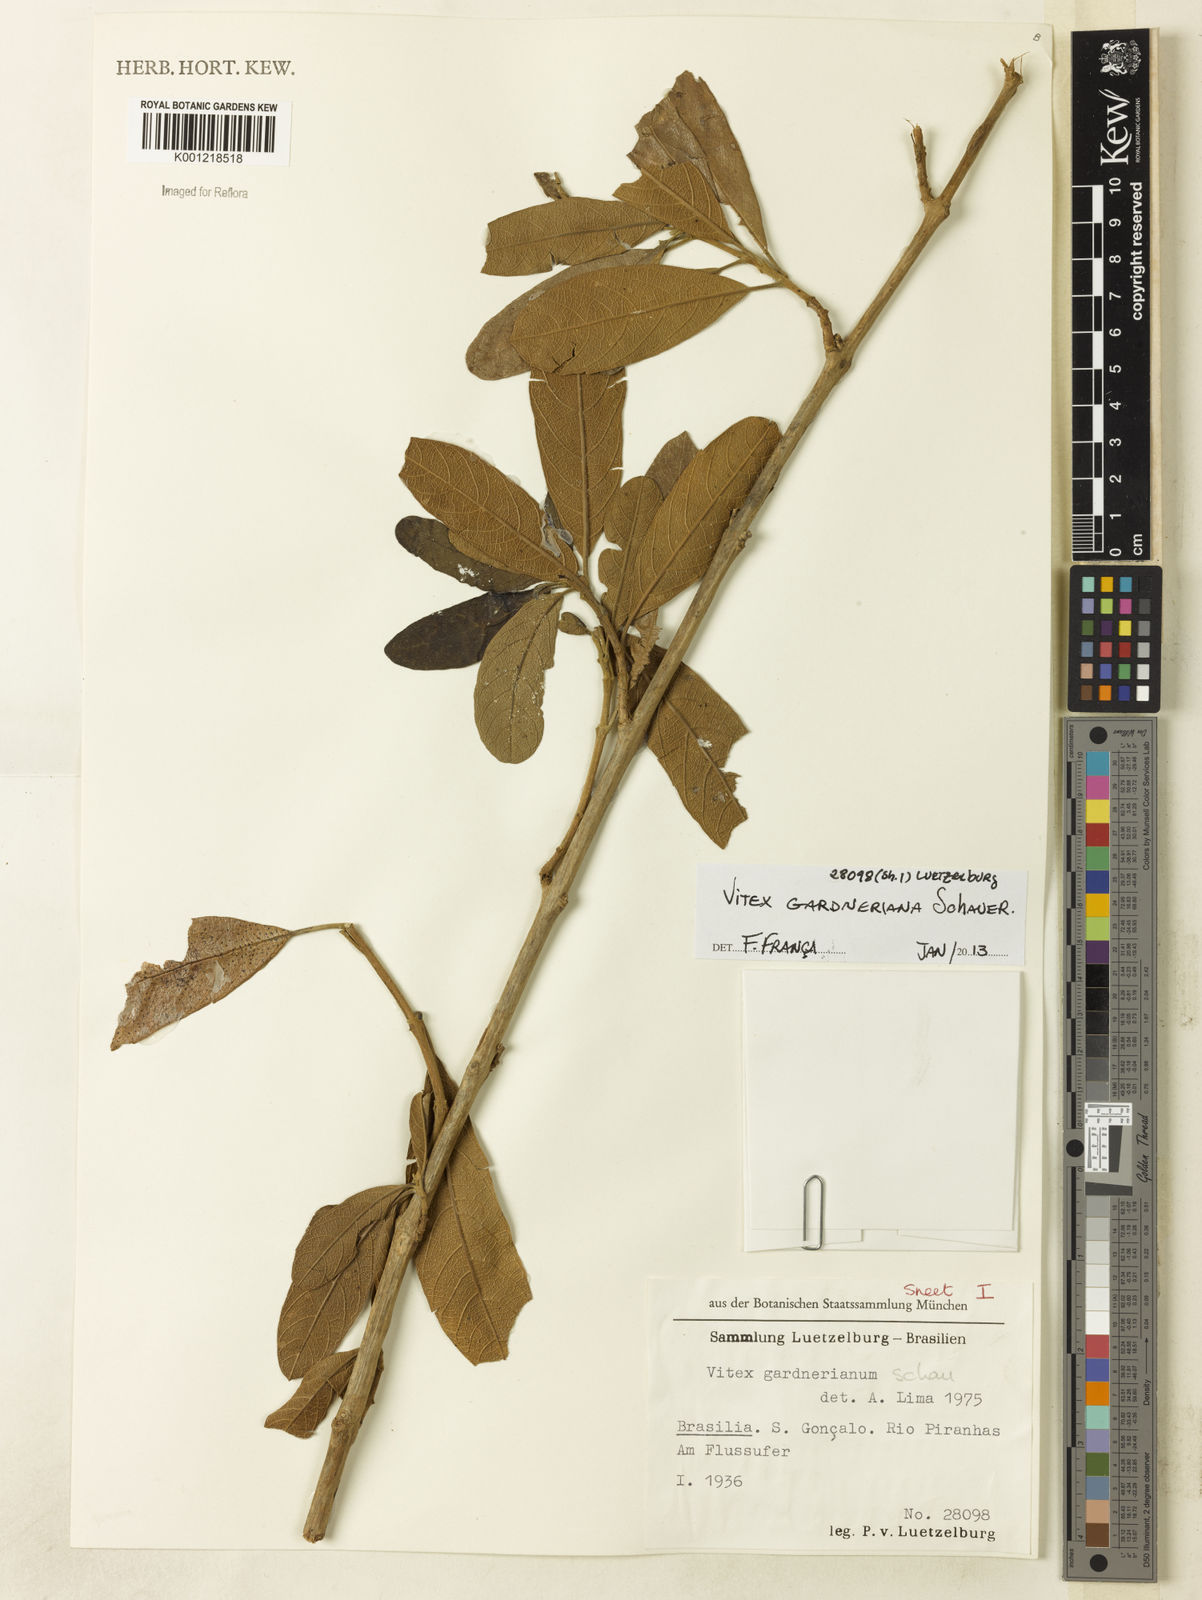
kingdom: Plantae
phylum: Tracheophyta
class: Magnoliopsida
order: Lamiales
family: Lamiaceae
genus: Vitex
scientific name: Vitex gardneriana
